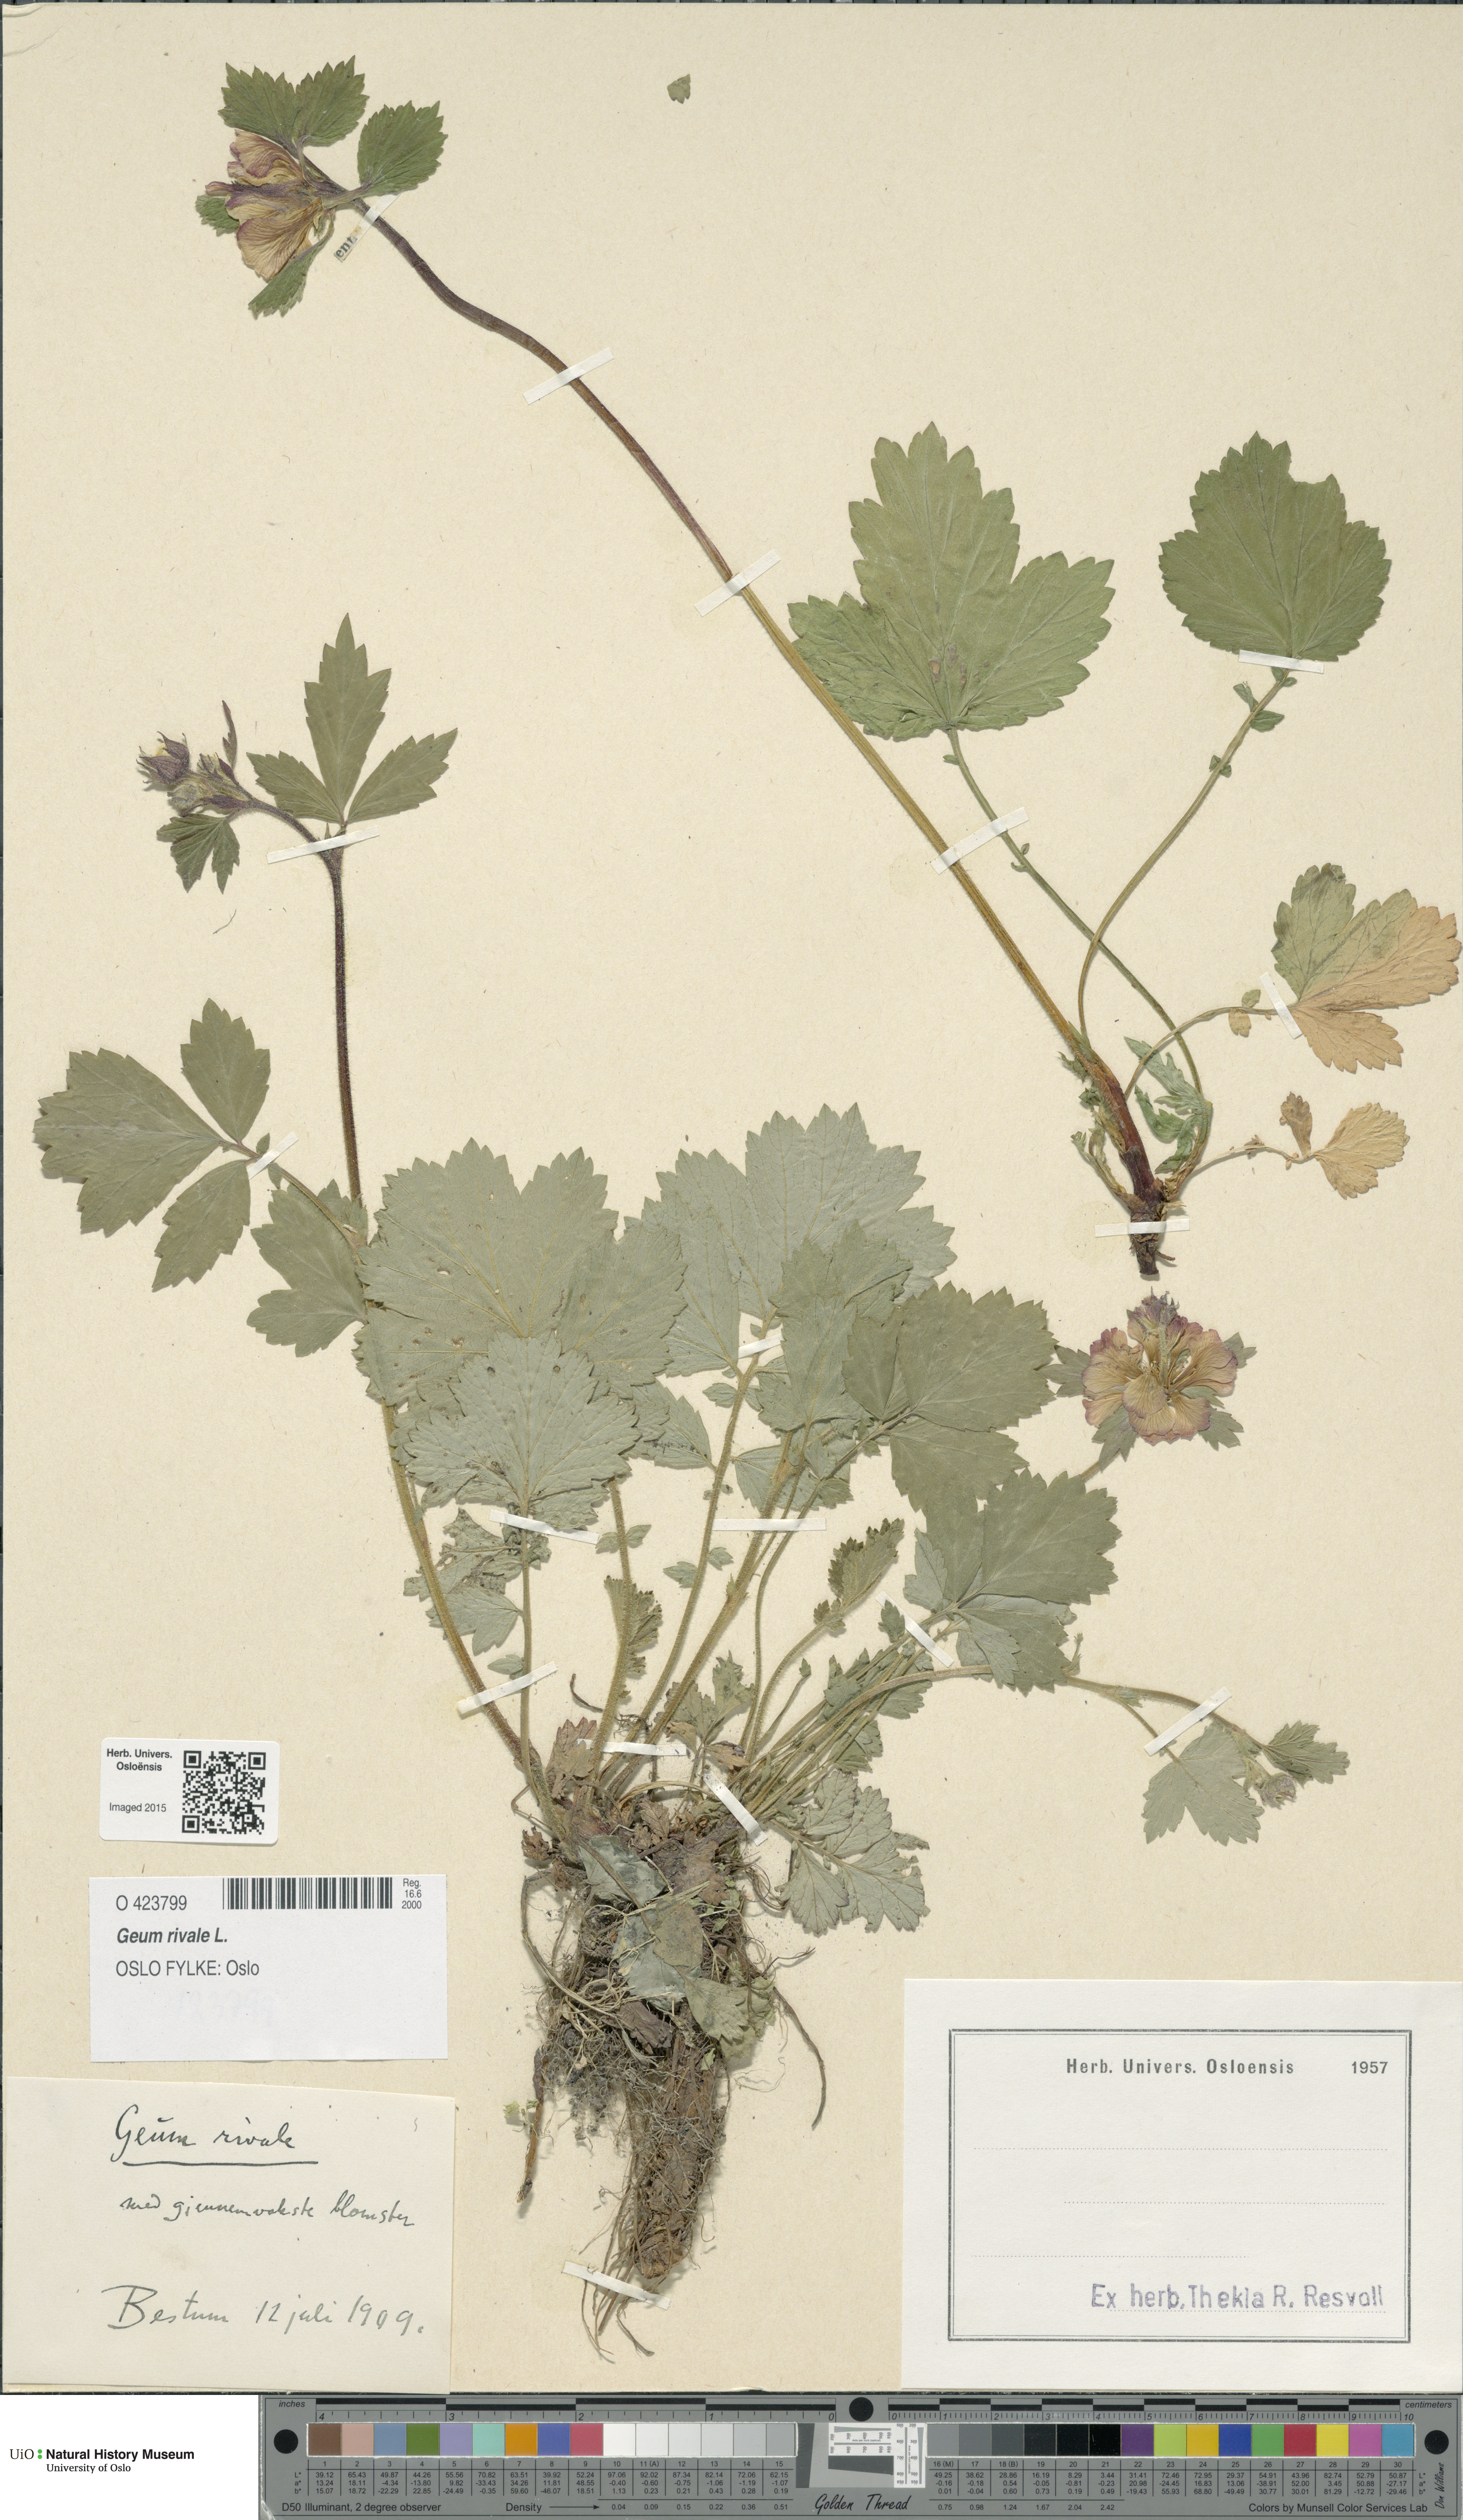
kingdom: Plantae
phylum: Tracheophyta
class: Magnoliopsida
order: Rosales
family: Rosaceae
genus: Geum
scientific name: Geum rivale
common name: Water avens
